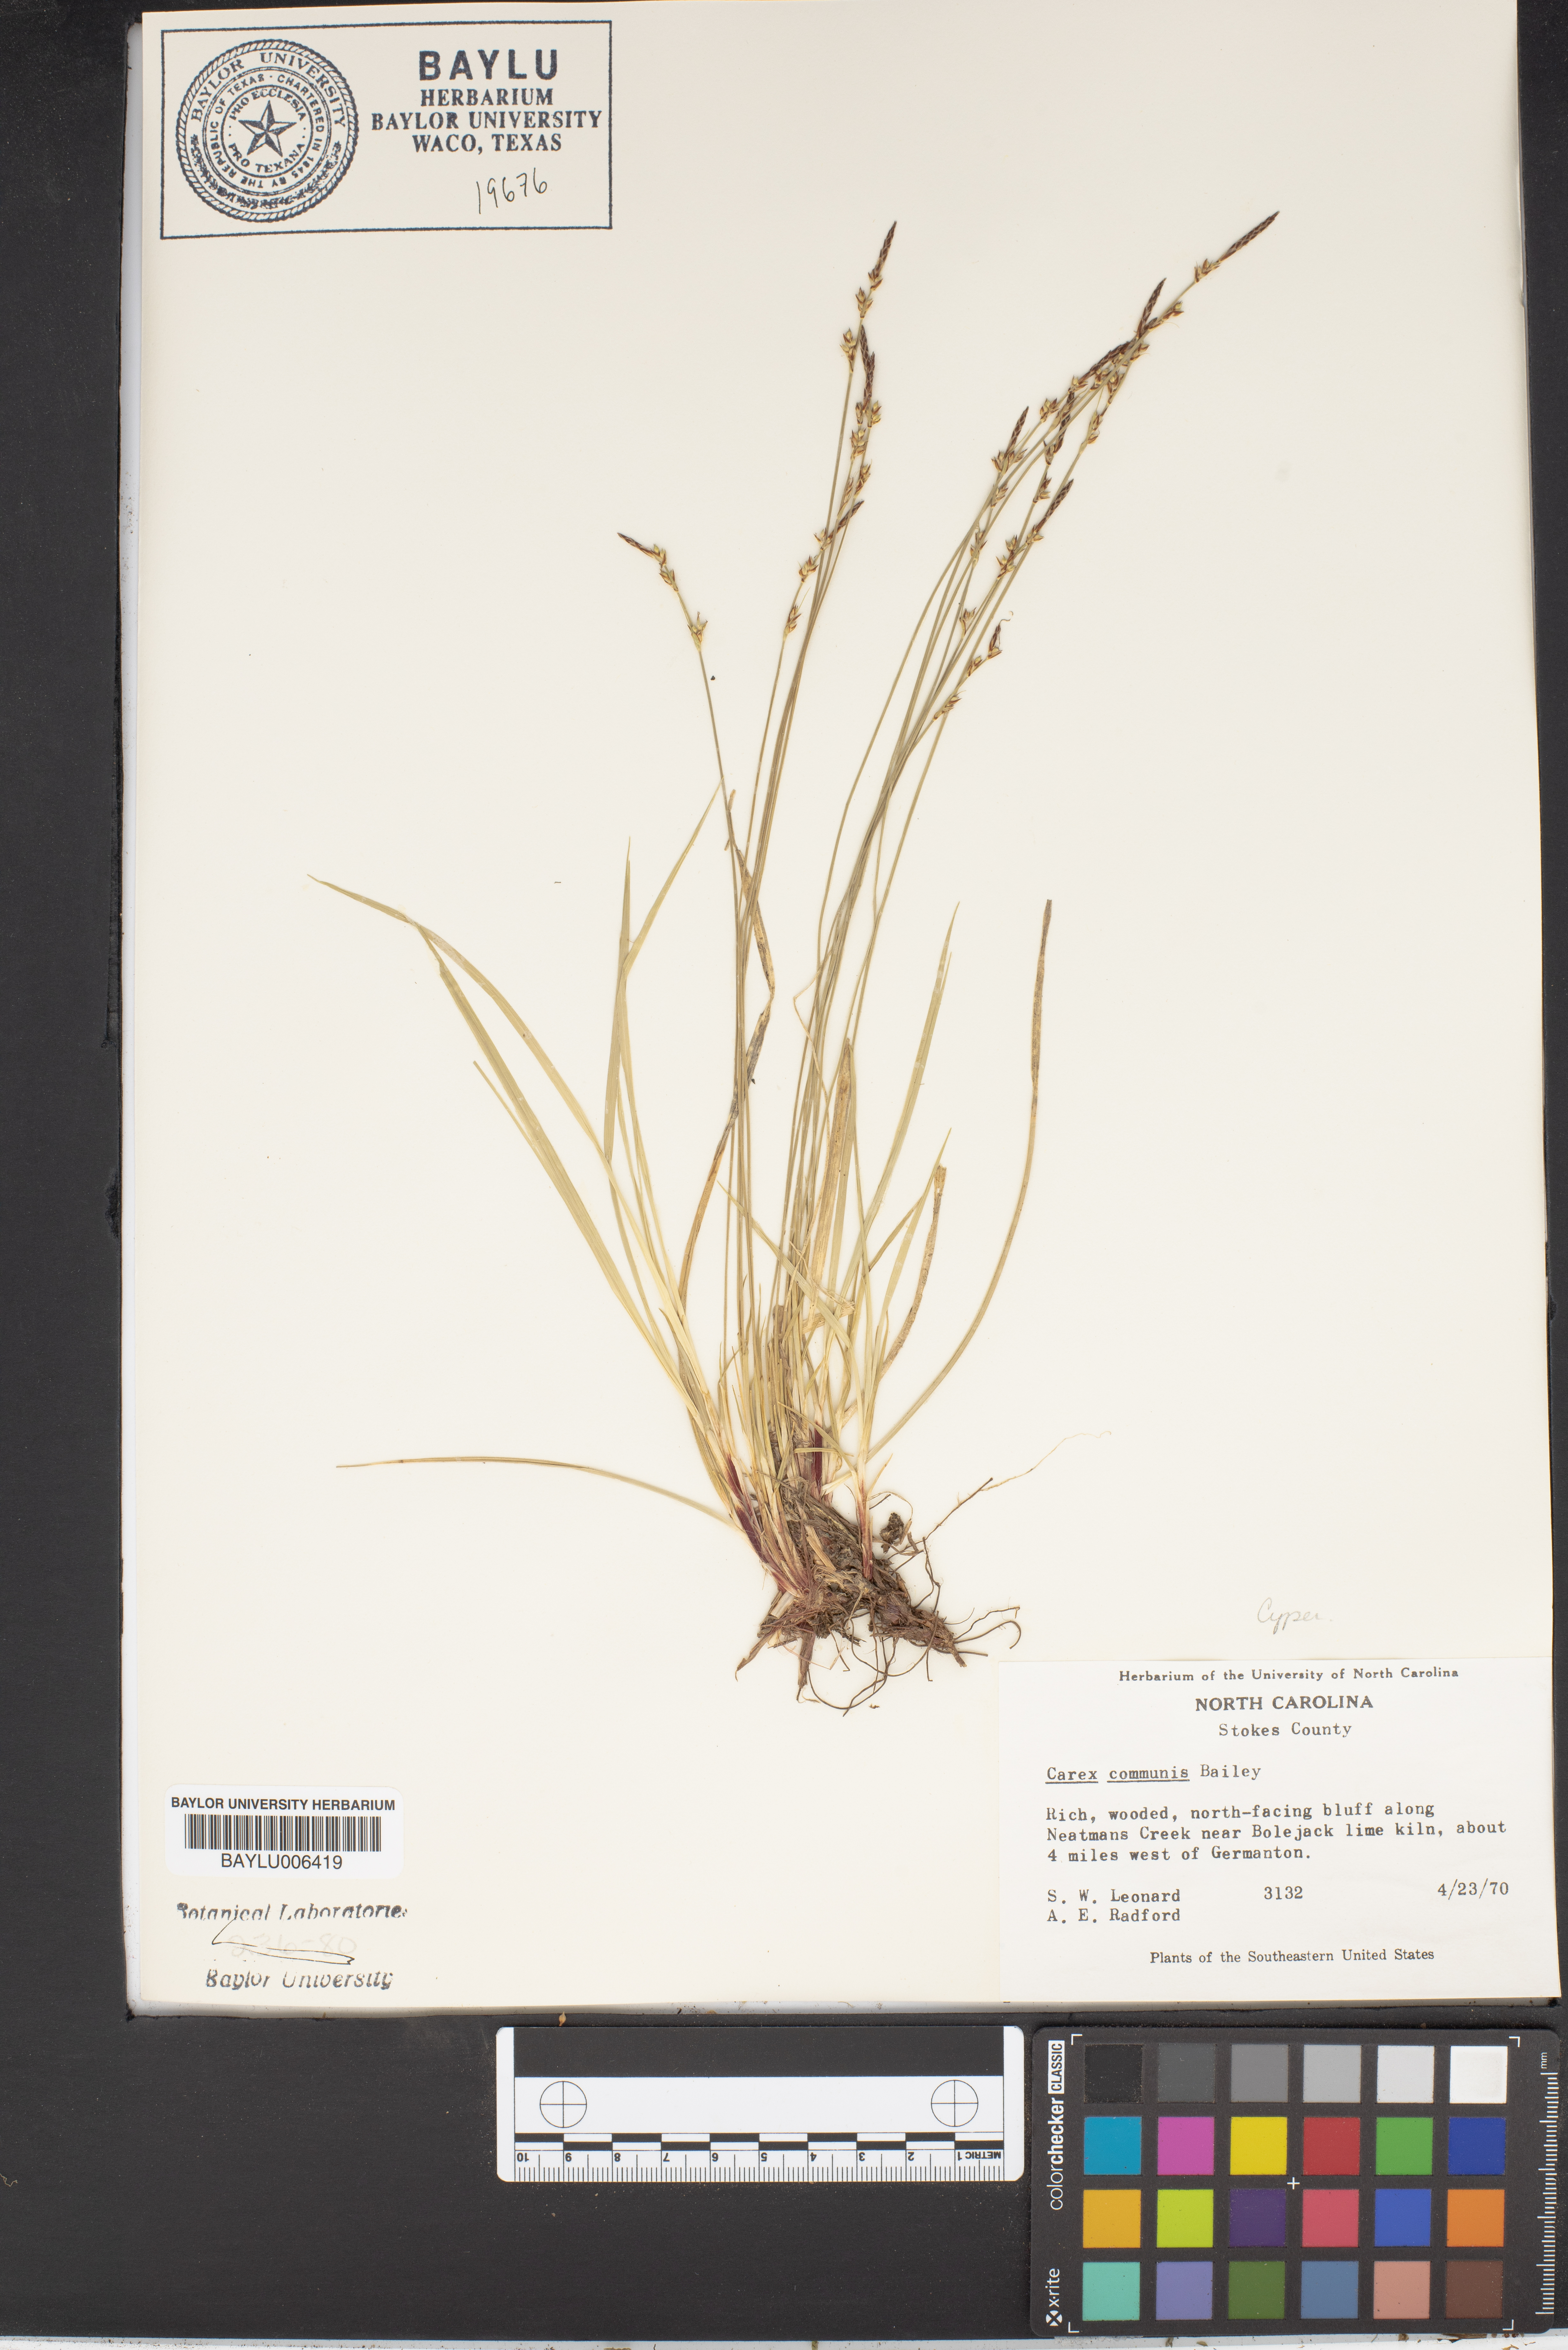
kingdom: Plantae
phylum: Tracheophyta
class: Liliopsida
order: Poales
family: Cyperaceae
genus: Carex
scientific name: Carex communis
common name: Colonial oak sedge
